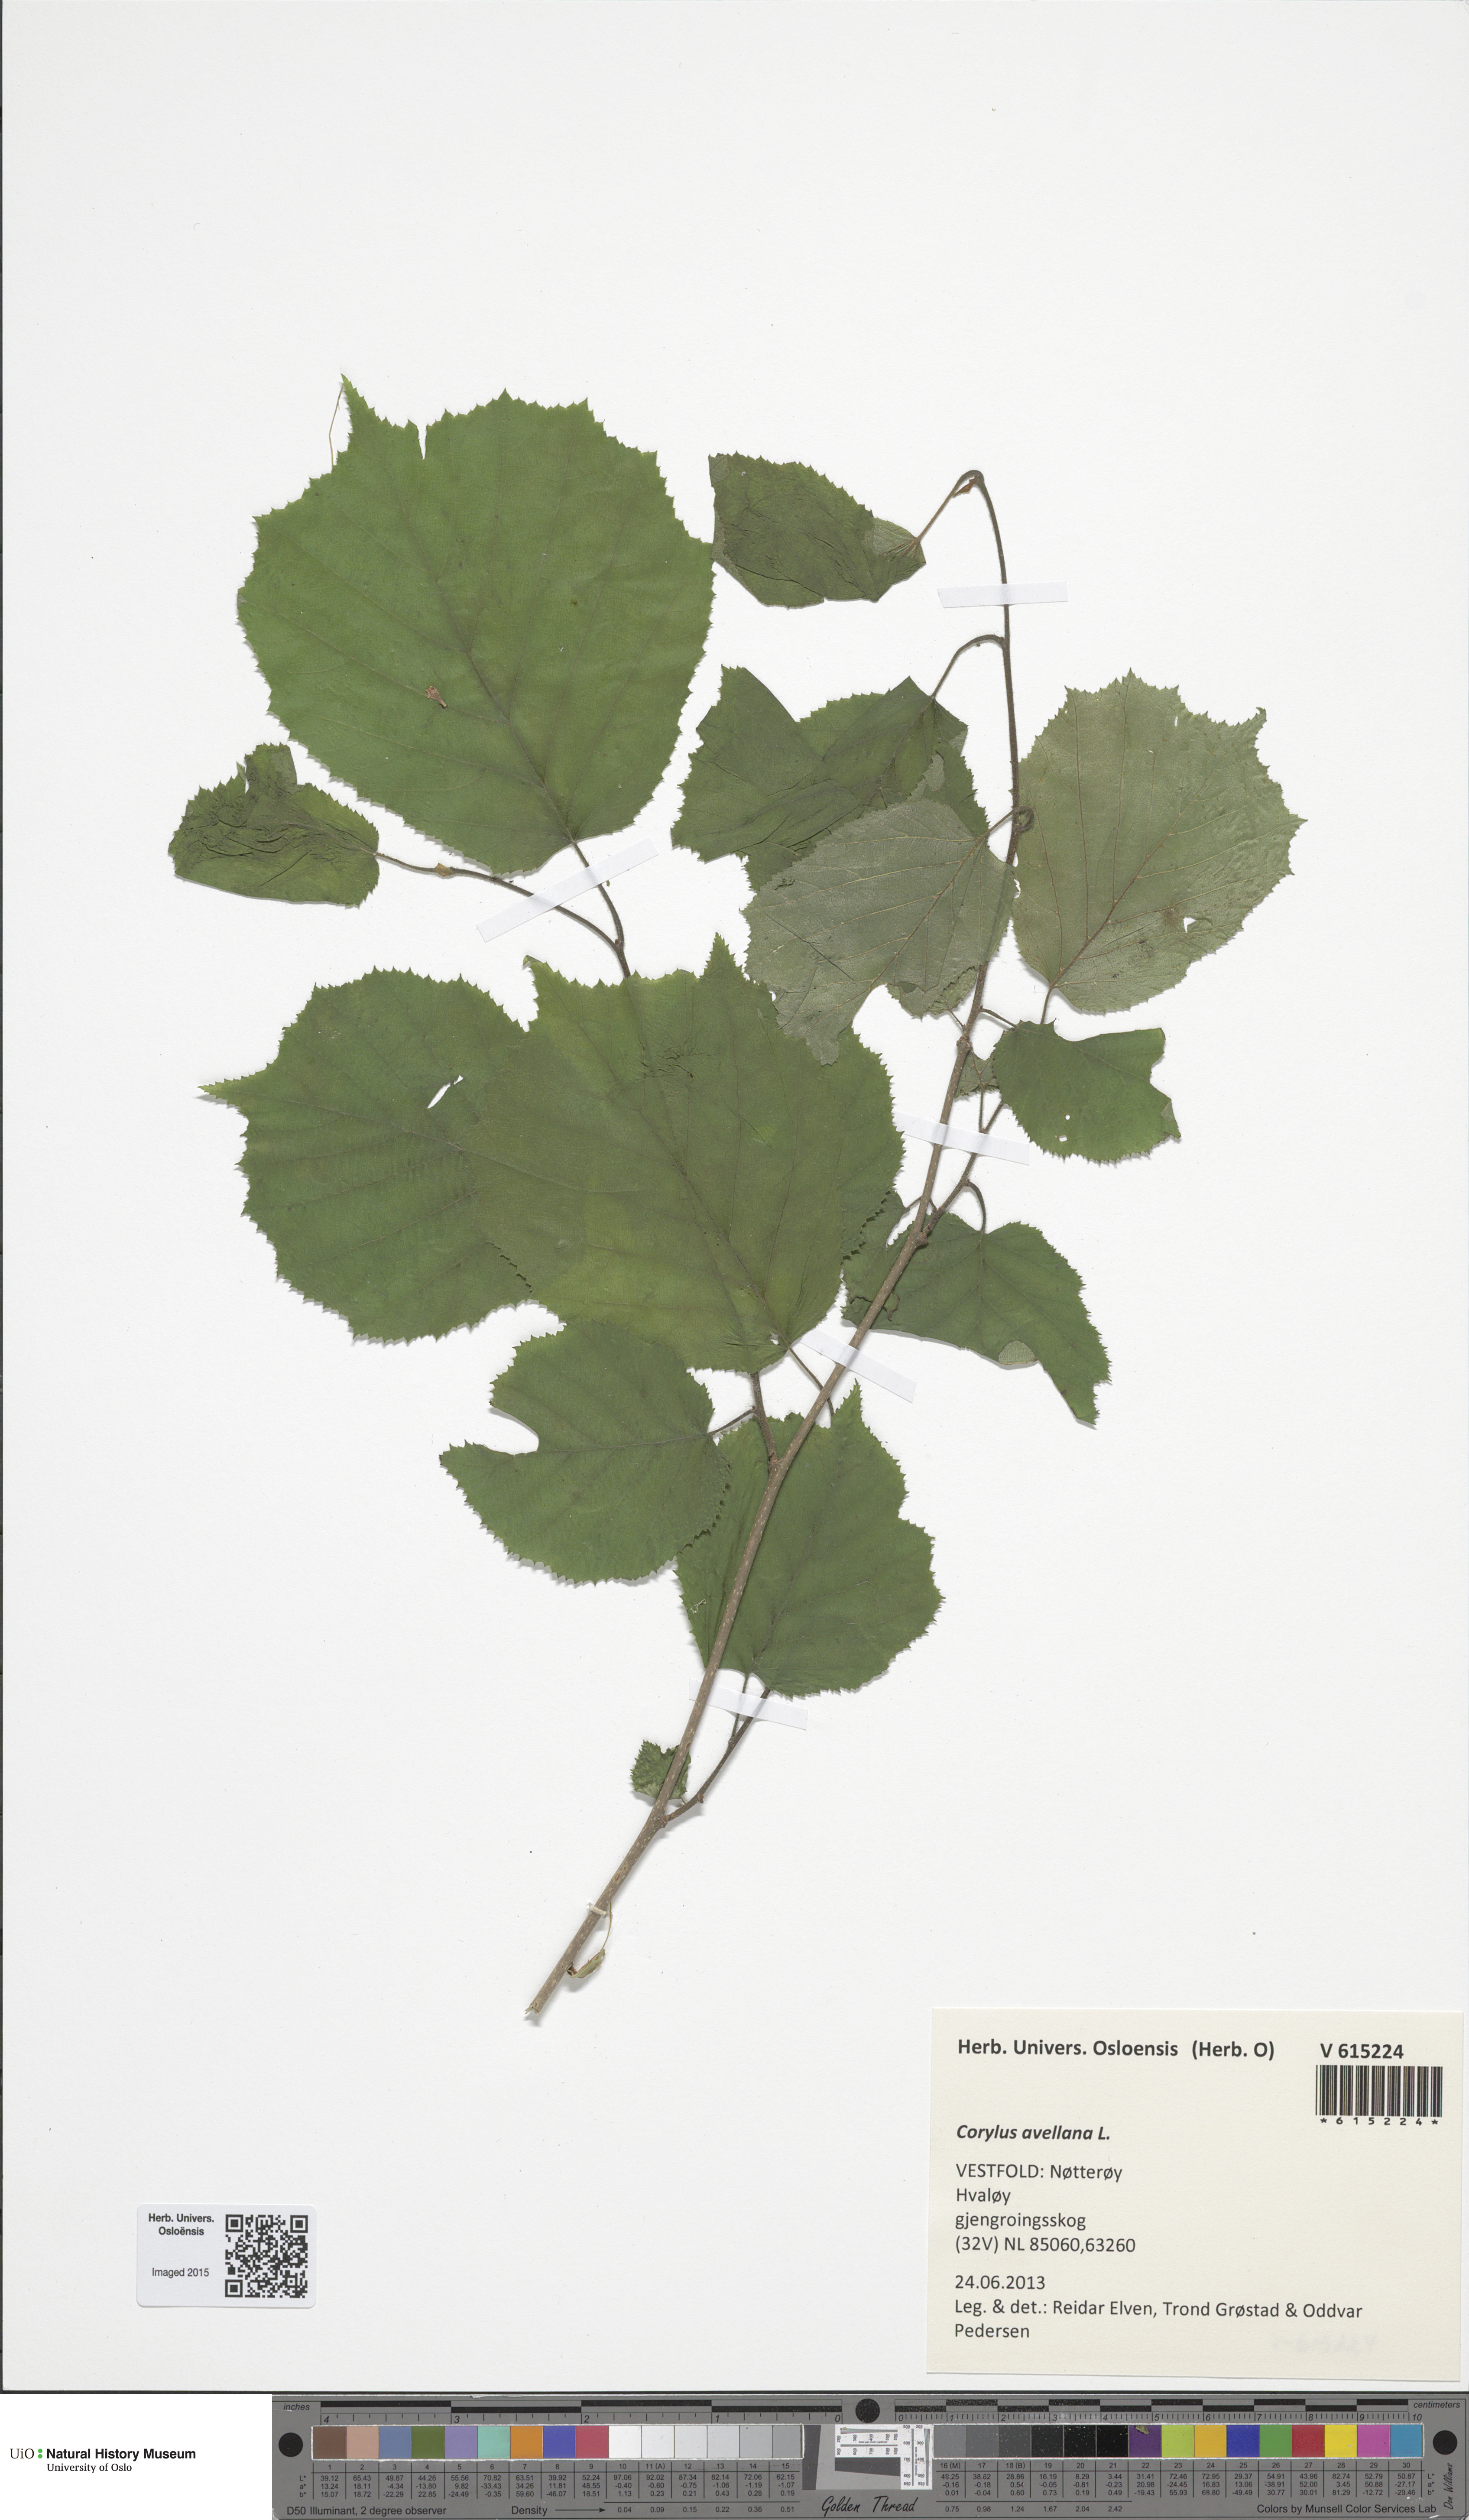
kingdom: Plantae
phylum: Tracheophyta
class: Magnoliopsida
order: Fagales
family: Betulaceae
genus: Corylus
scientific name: Corylus avellana
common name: European hazel
